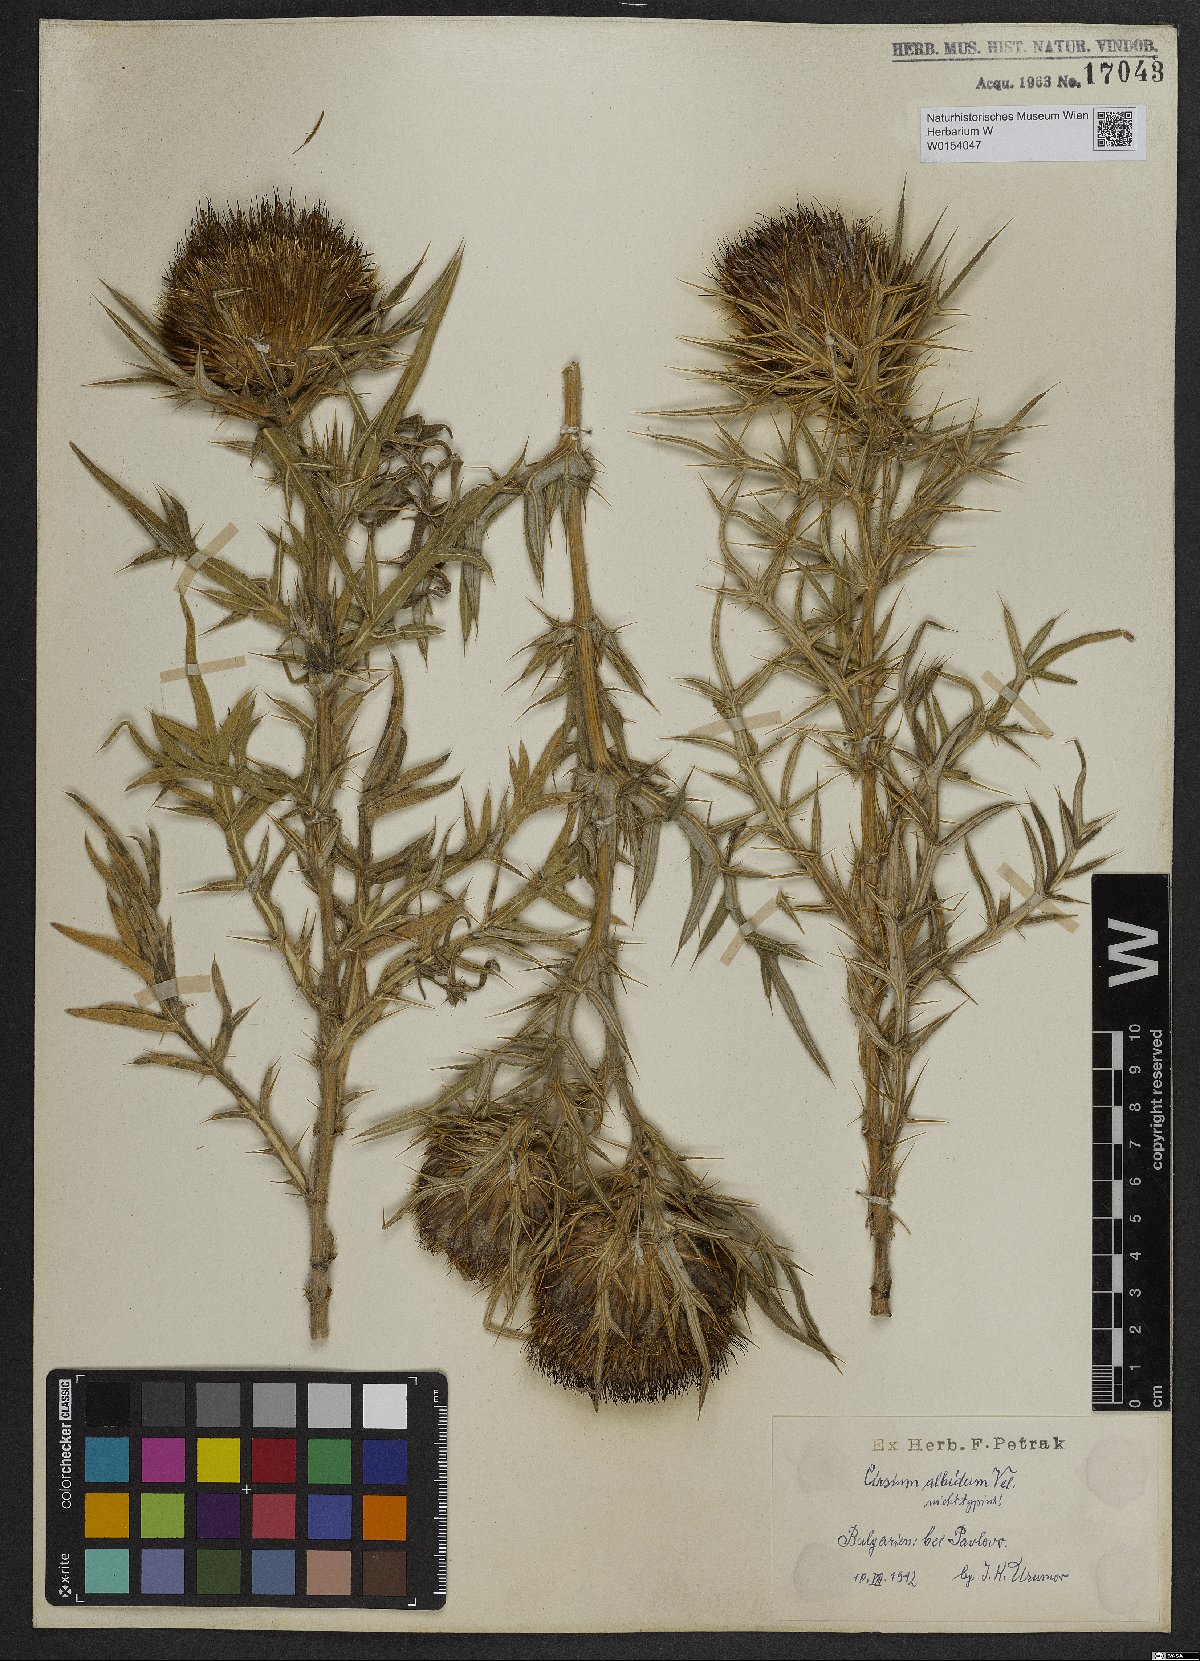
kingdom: Plantae
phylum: Tracheophyta
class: Magnoliopsida
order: Asterales
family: Asteraceae
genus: Lophiolepis
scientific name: Lophiolepis albida
